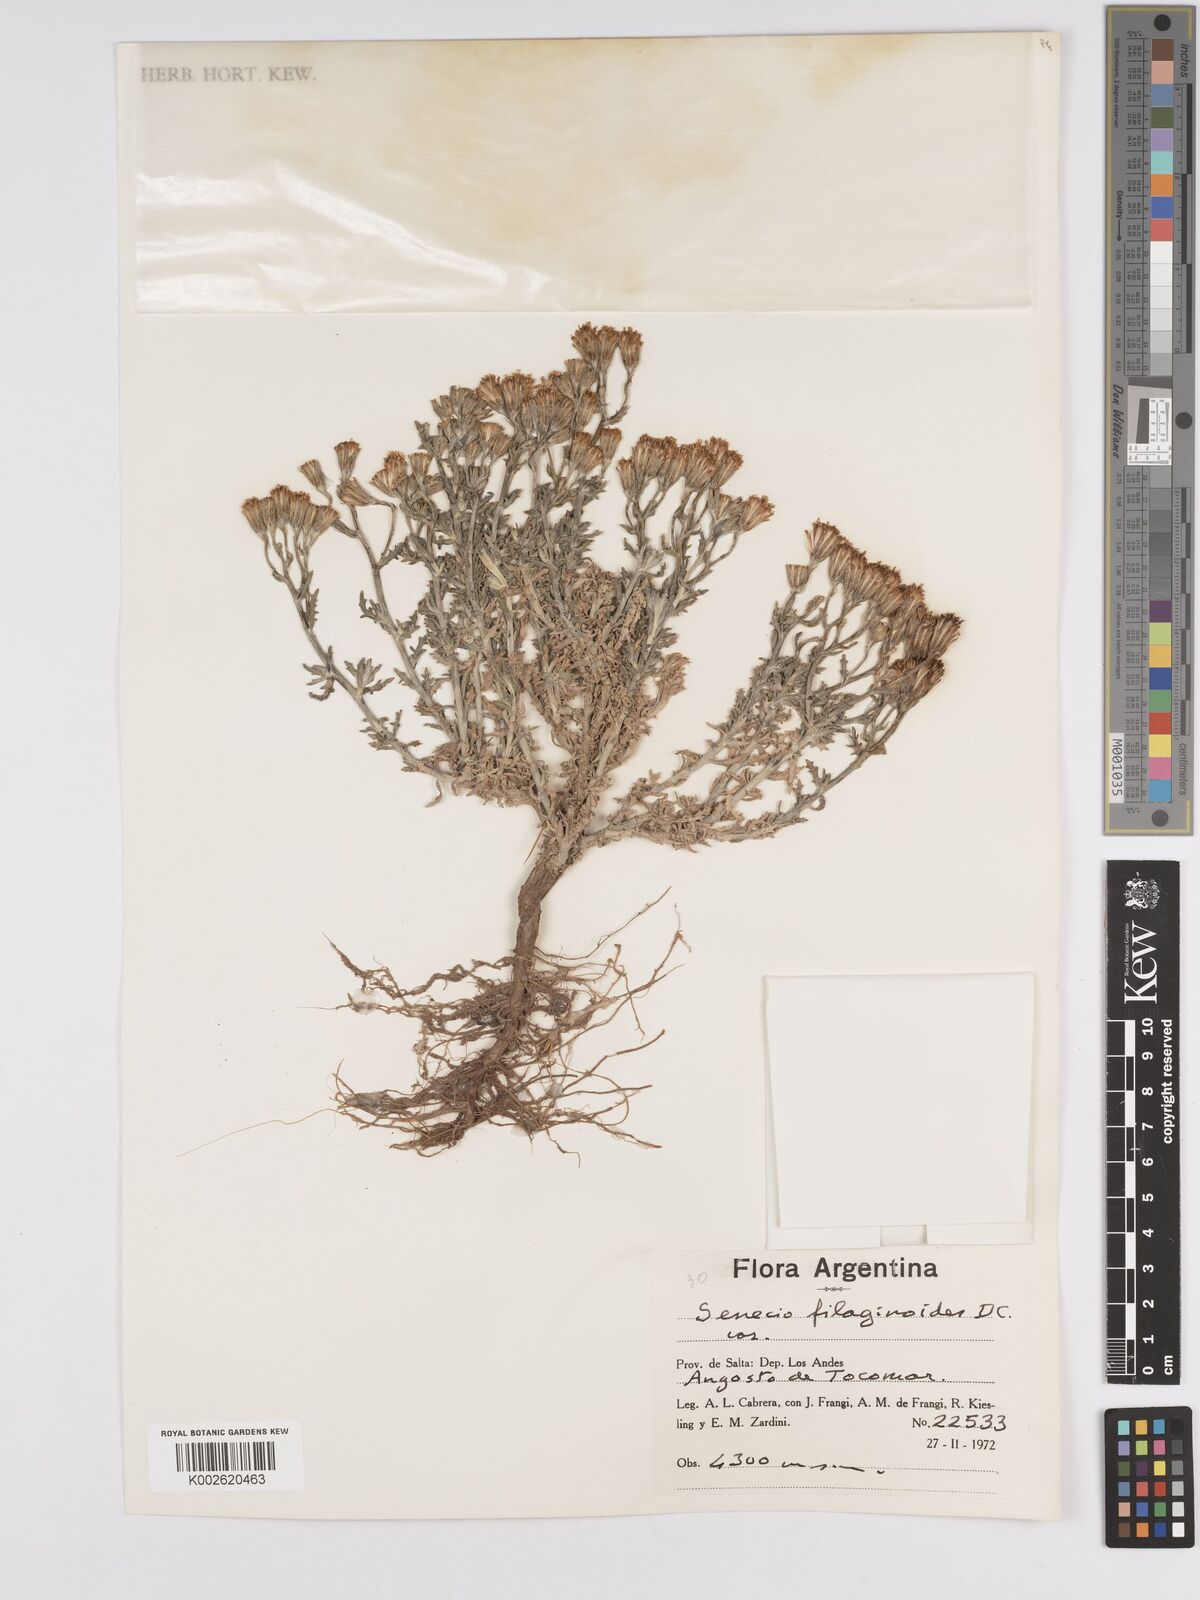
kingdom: Plantae
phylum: Tracheophyta
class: Magnoliopsida
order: Asterales
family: Asteraceae
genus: Senecio
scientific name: Senecio filaginoides
